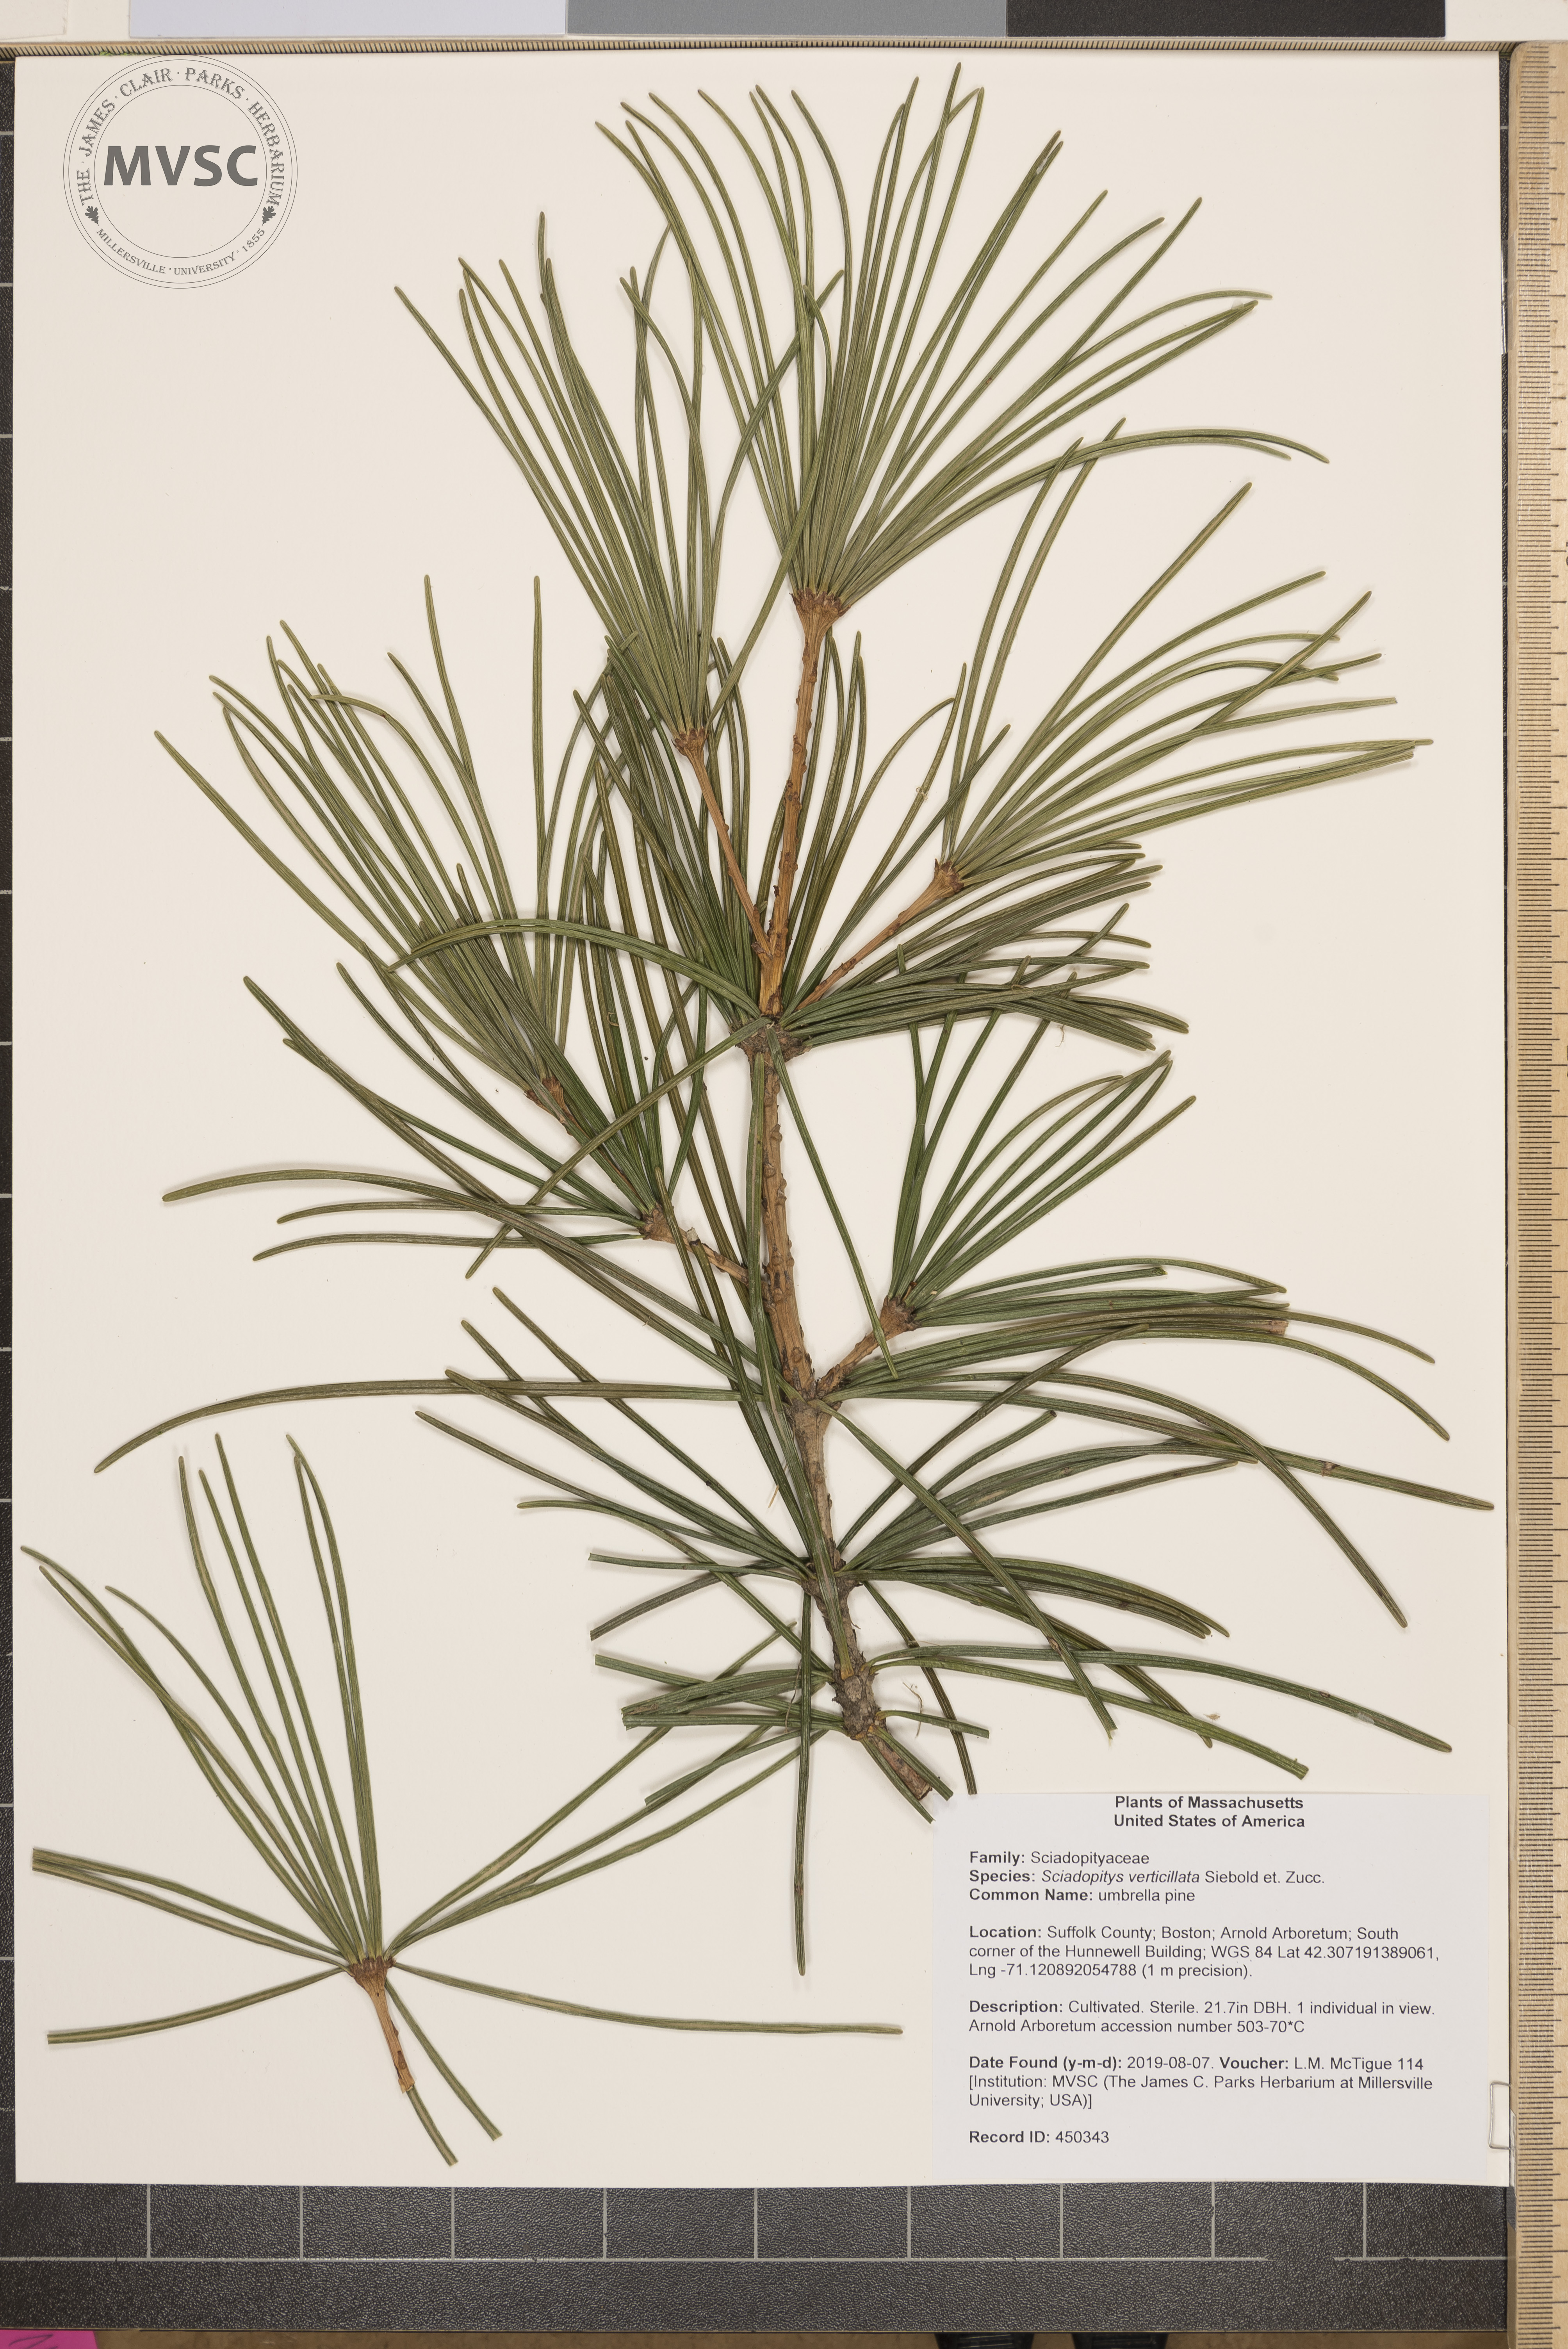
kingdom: Plantae
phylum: Tracheophyta
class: Pinopsida
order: Pinales
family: Sciadopityaceae
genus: Sciadopitys
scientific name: Sciadopitys verticillata
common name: umbrella pine
